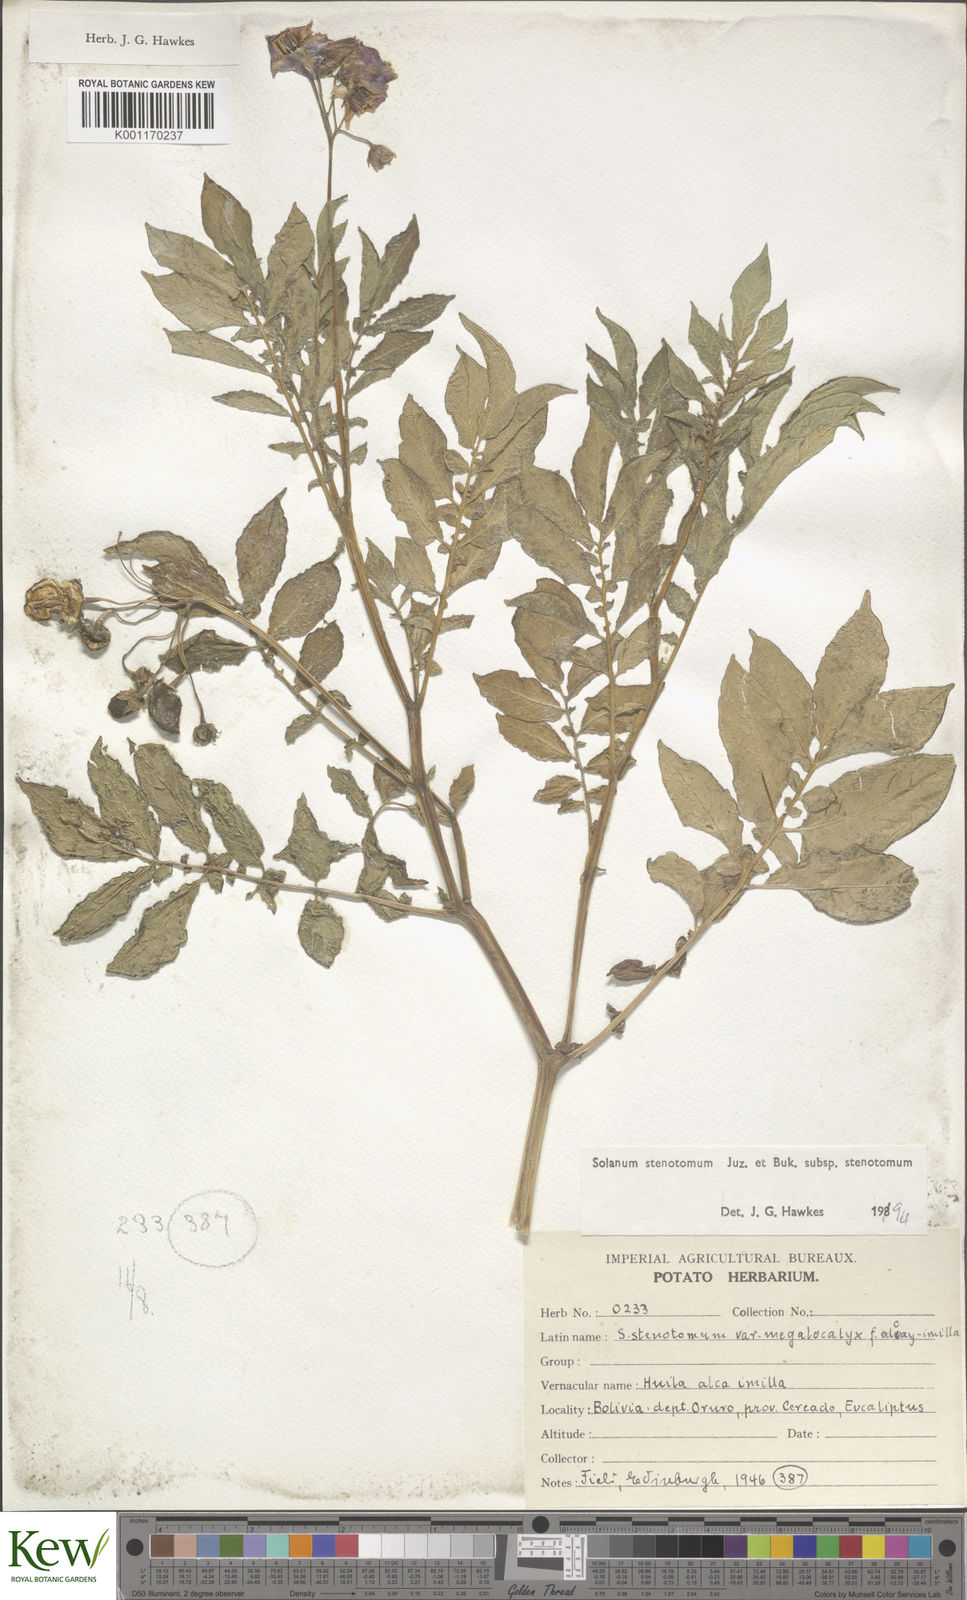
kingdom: Plantae
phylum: Tracheophyta
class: Magnoliopsida
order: Solanales
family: Solanaceae
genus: Solanum
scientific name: Solanum tuberosum
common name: Potato
